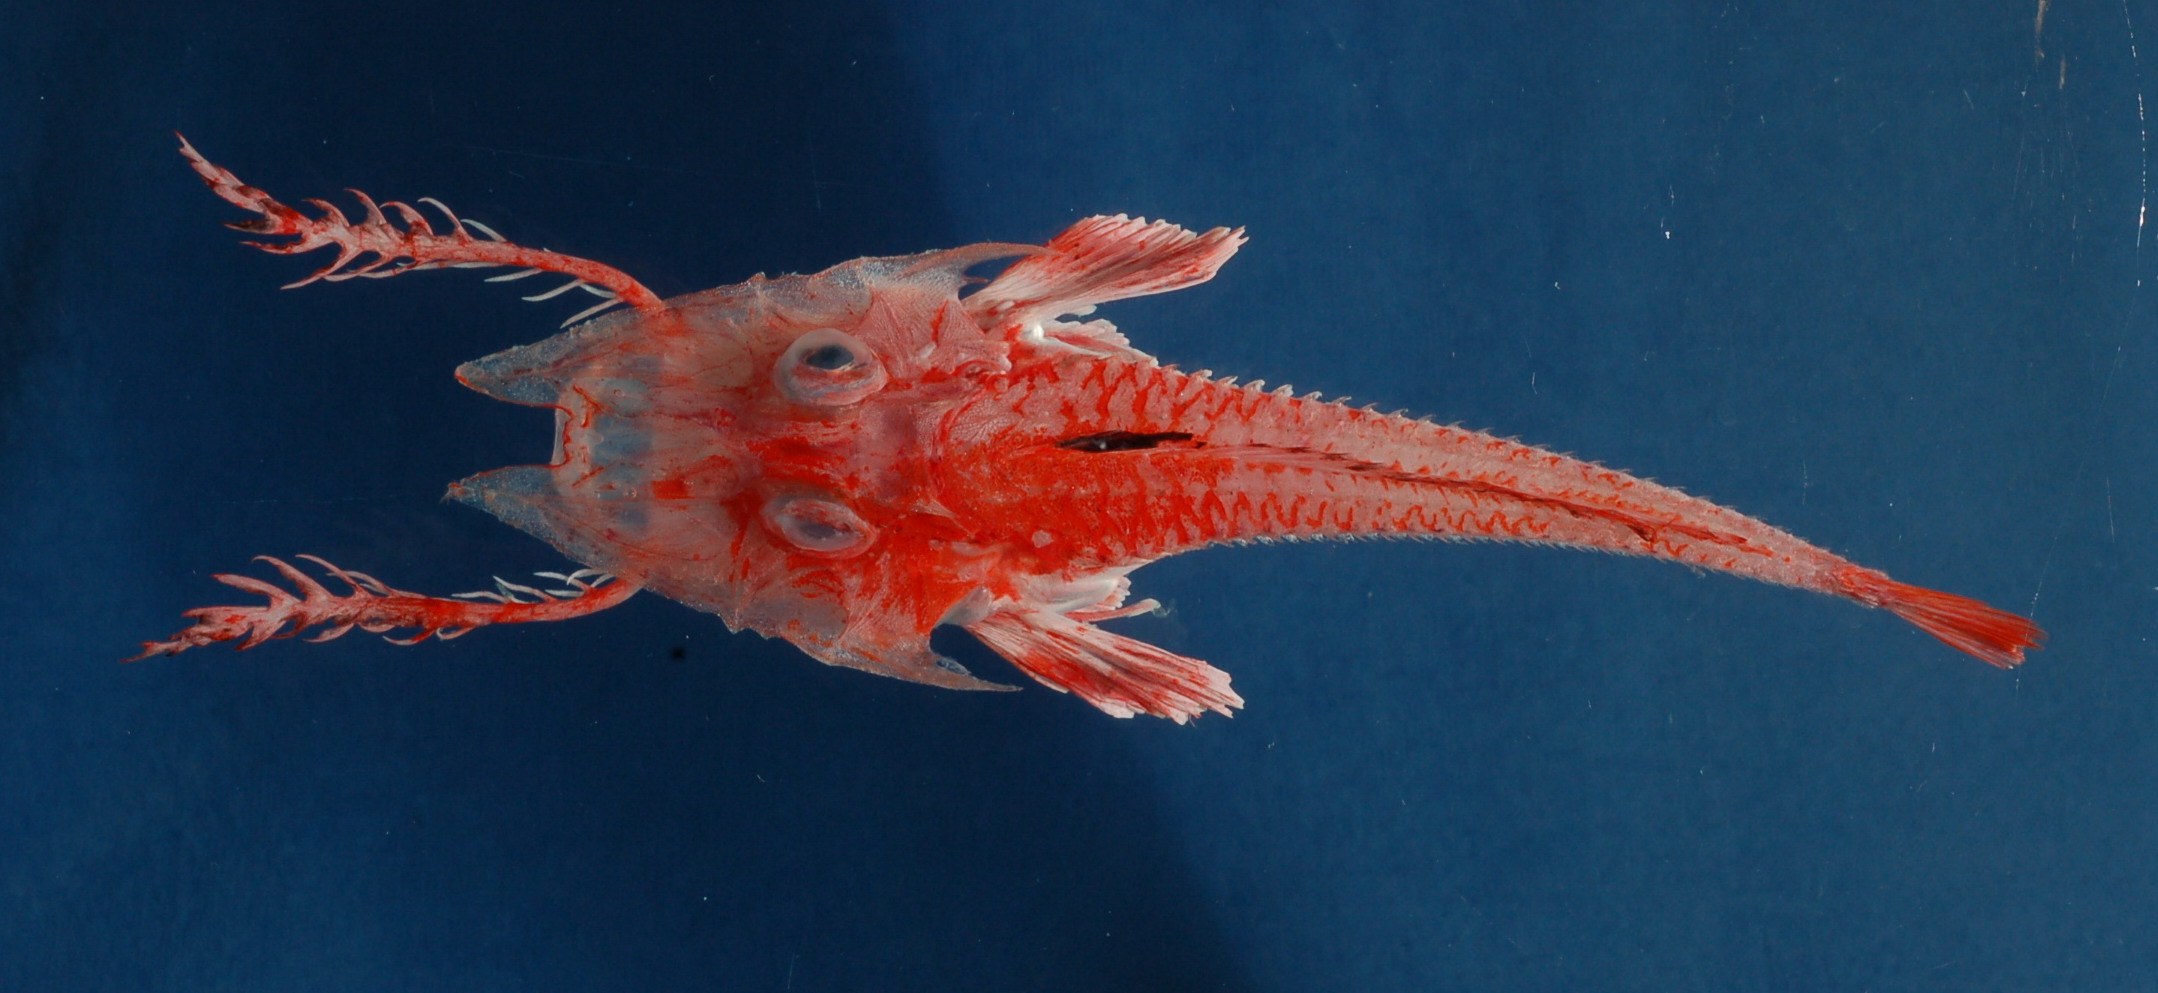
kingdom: Animalia
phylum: Chordata
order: Scorpaeniformes
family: Peristediidae
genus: Scalicus
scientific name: Scalicus investigatoris
